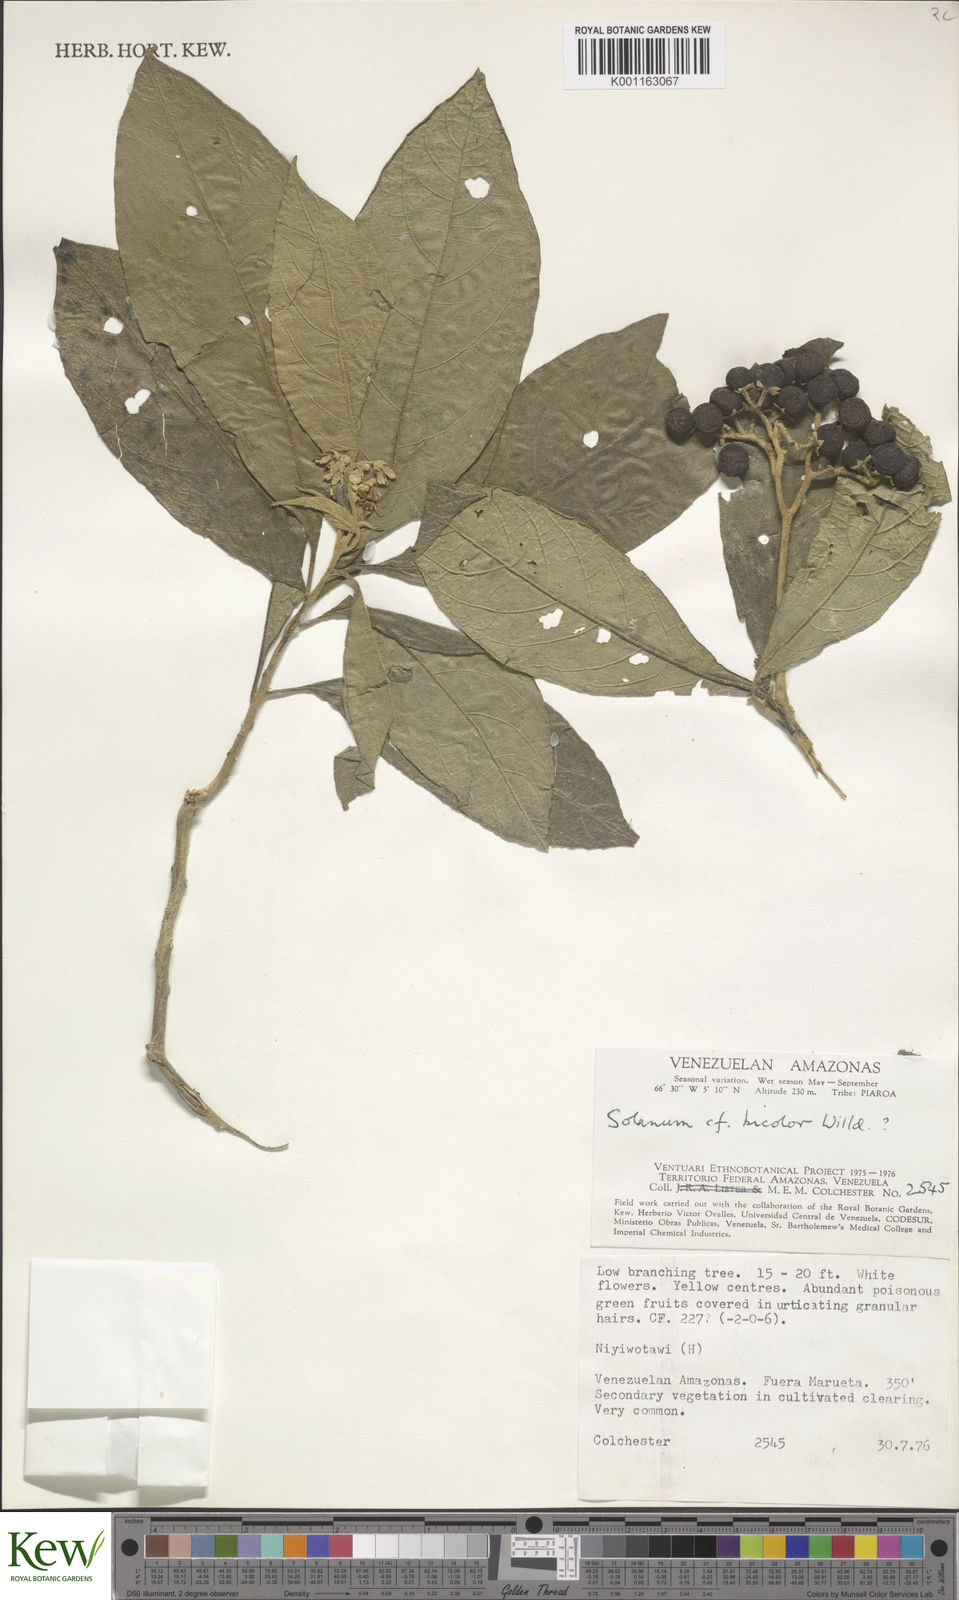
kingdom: Plantae
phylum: Tracheophyta
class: Magnoliopsida
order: Solanales
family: Solanaceae
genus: Solanum
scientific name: Solanum bicolor
